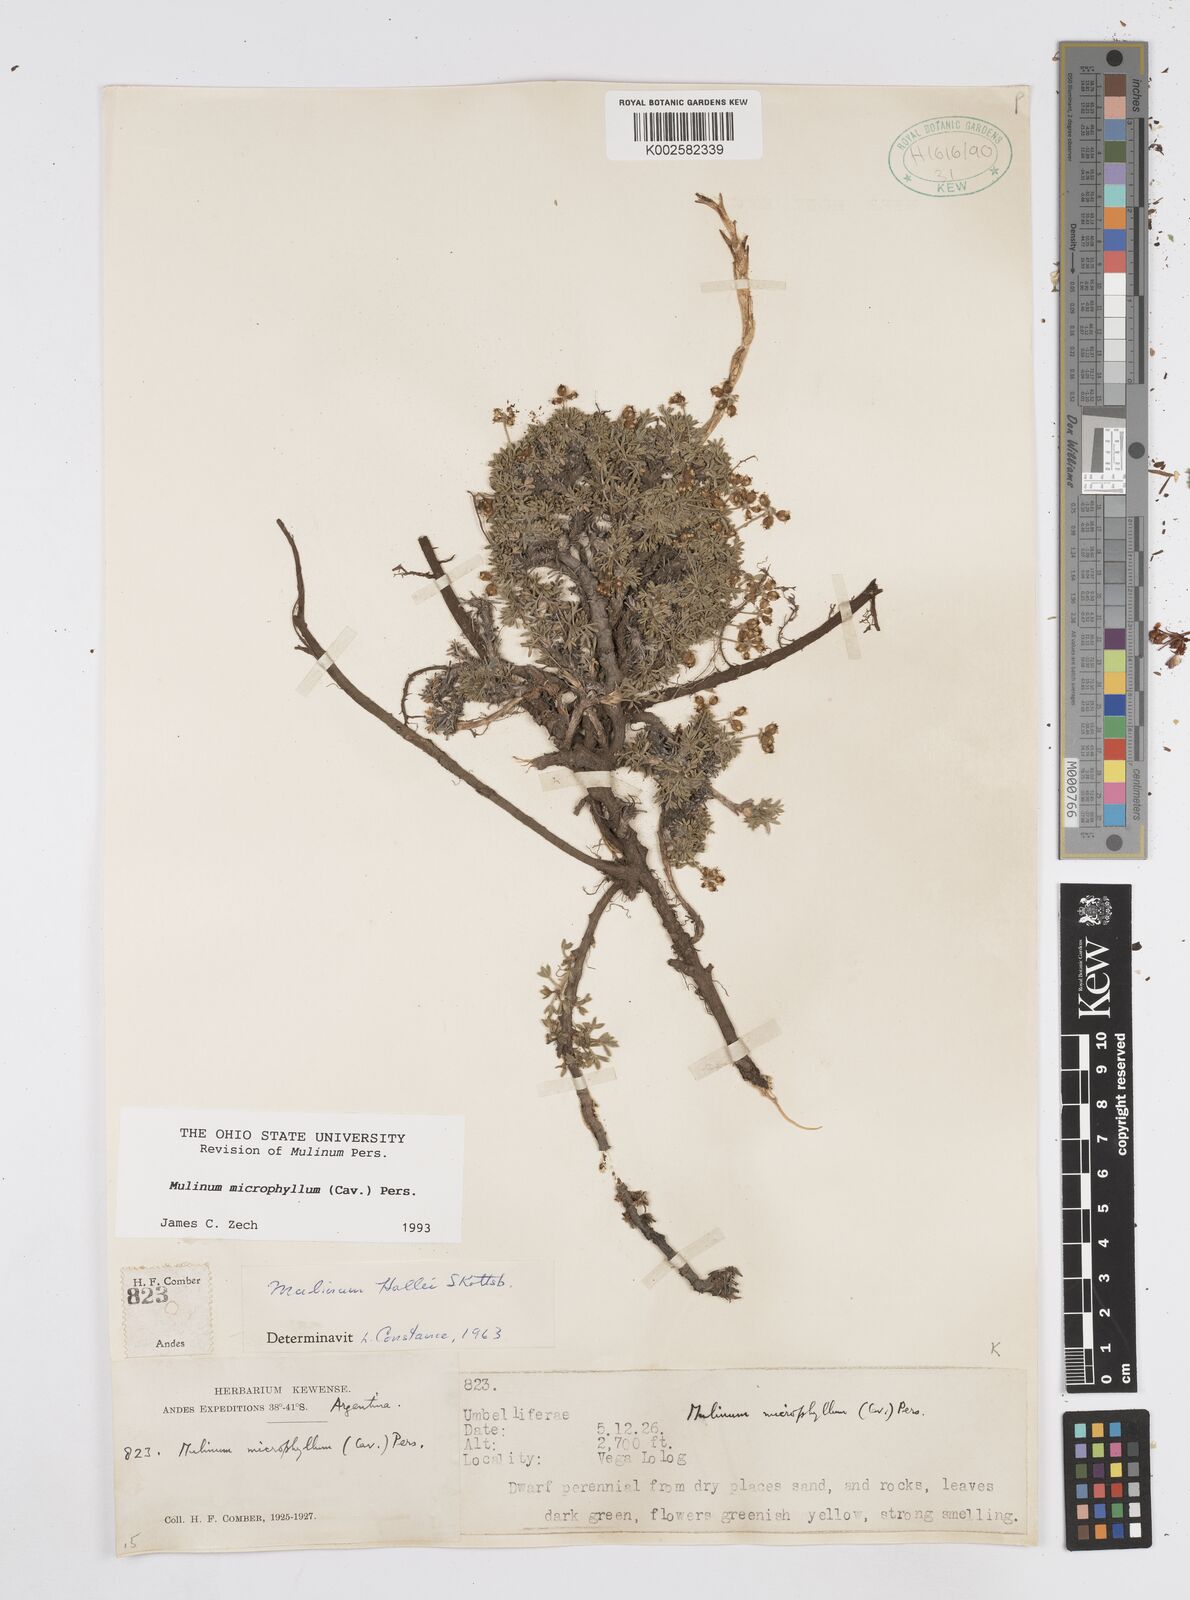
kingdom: Plantae
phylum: Tracheophyta
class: Magnoliopsida
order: Apiales
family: Apiaceae
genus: Azorella
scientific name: Azorella microphylla
